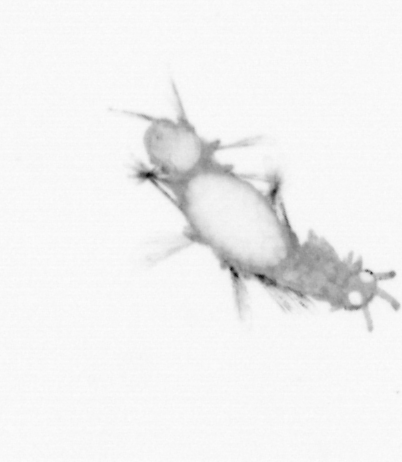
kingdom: Animalia
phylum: Annelida
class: Polychaeta
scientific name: Polychaeta
